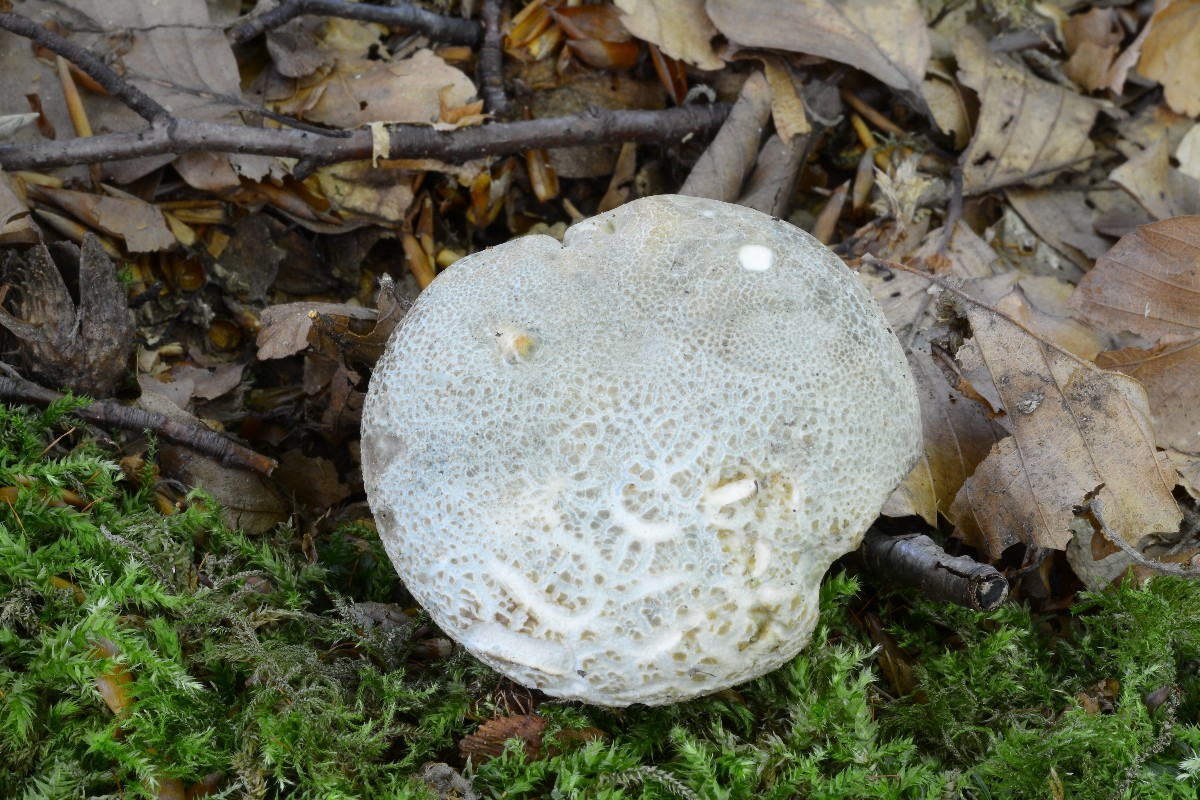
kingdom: Fungi
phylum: Basidiomycota
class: Agaricomycetes
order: Russulales
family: Russulaceae
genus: Russula
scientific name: Russula virescens
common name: spanskgrøn skørhat
